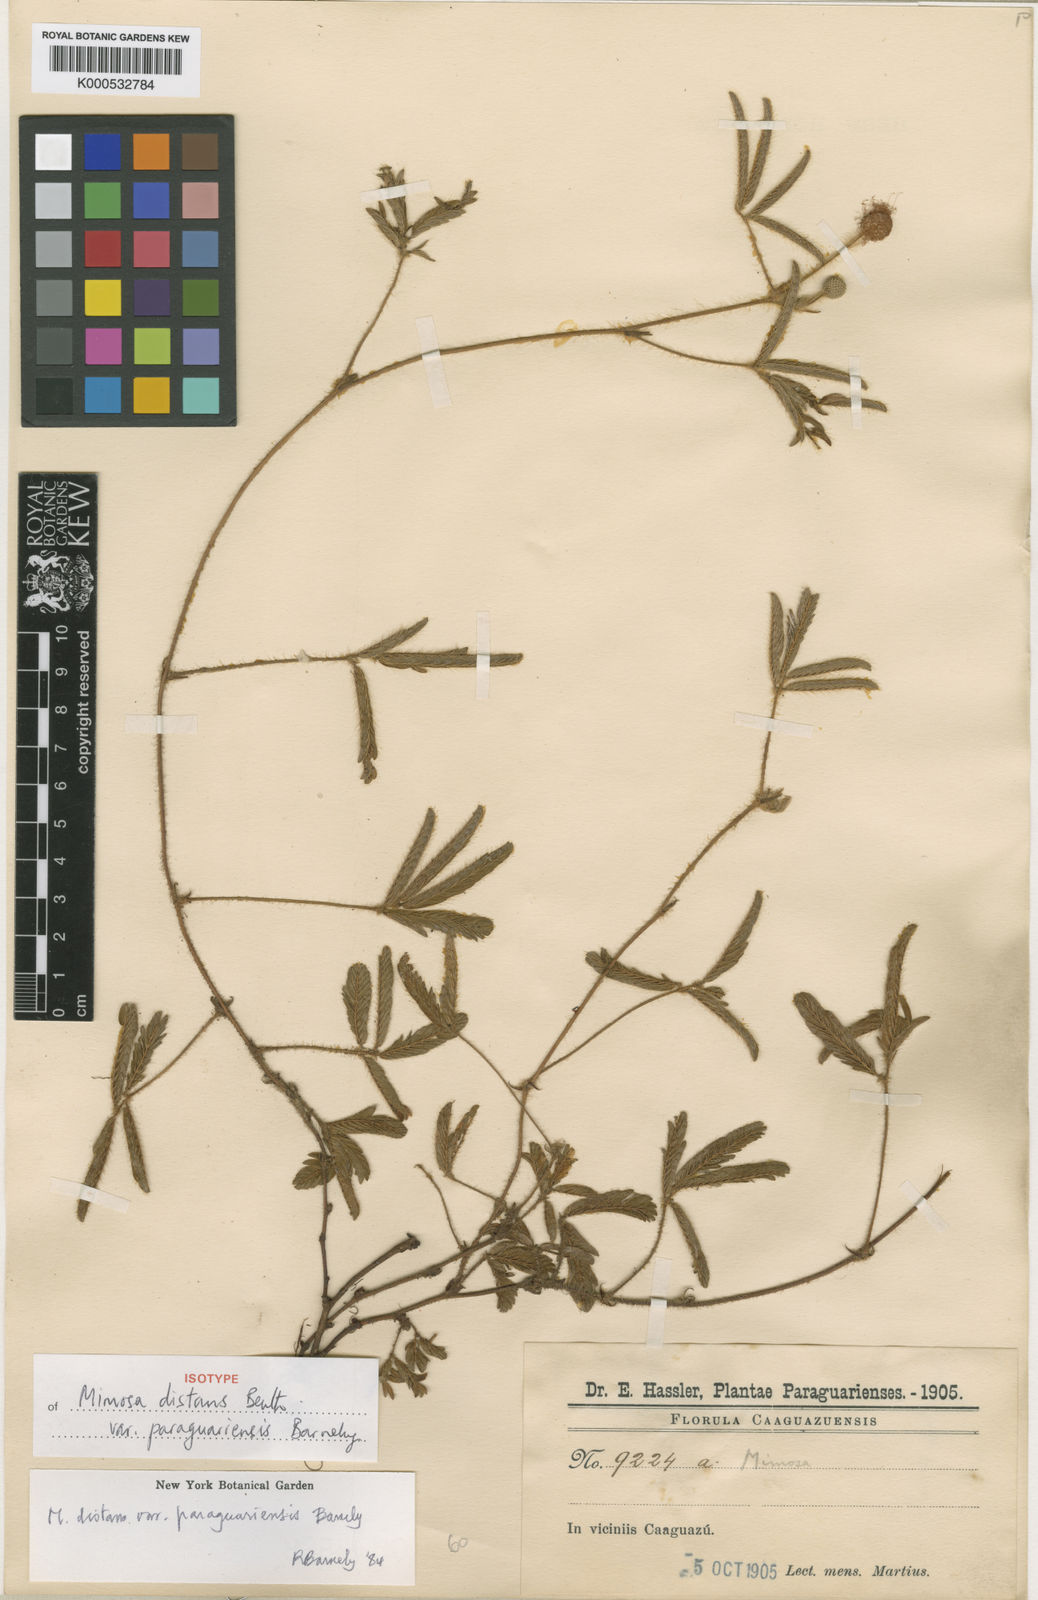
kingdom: Plantae
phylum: Tracheophyta
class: Magnoliopsida
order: Fabales
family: Fabaceae
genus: Mimosa
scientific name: Mimosa distans
